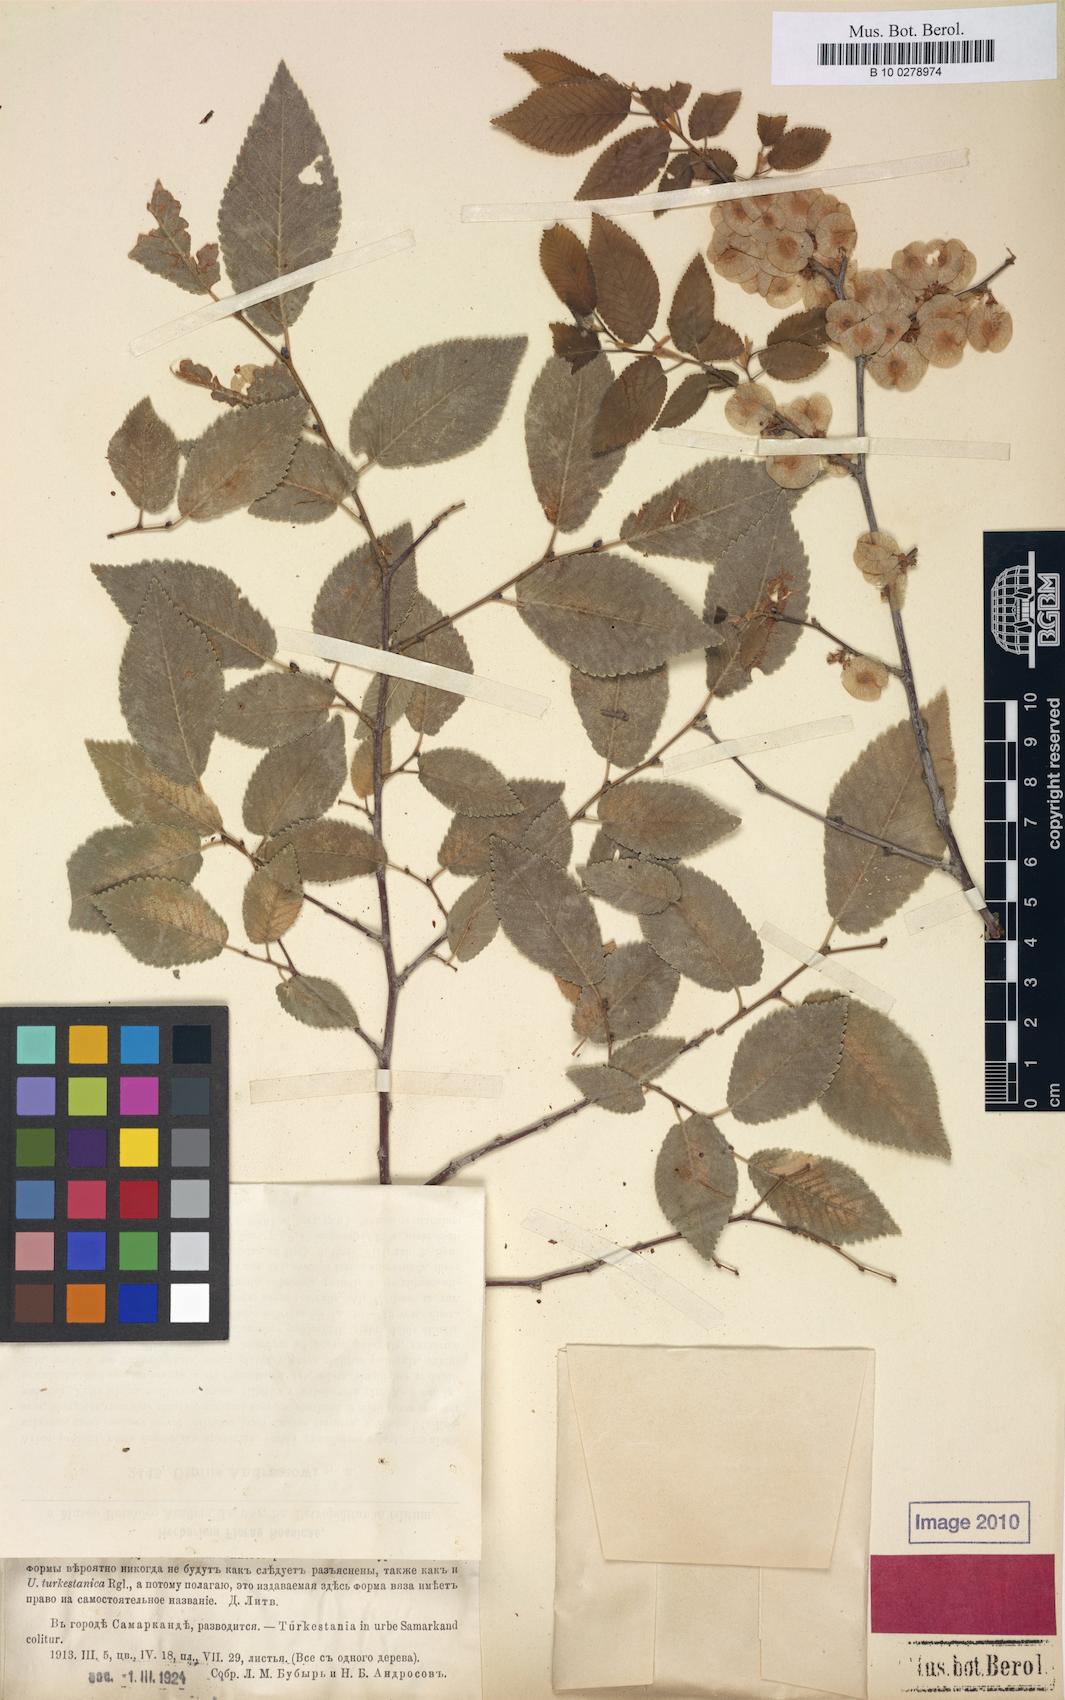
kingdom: Plantae
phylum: Tracheophyta
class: Magnoliopsida
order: Rosales
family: Ulmaceae
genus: Ulmus
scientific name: Ulmus androssowii
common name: Narwan
